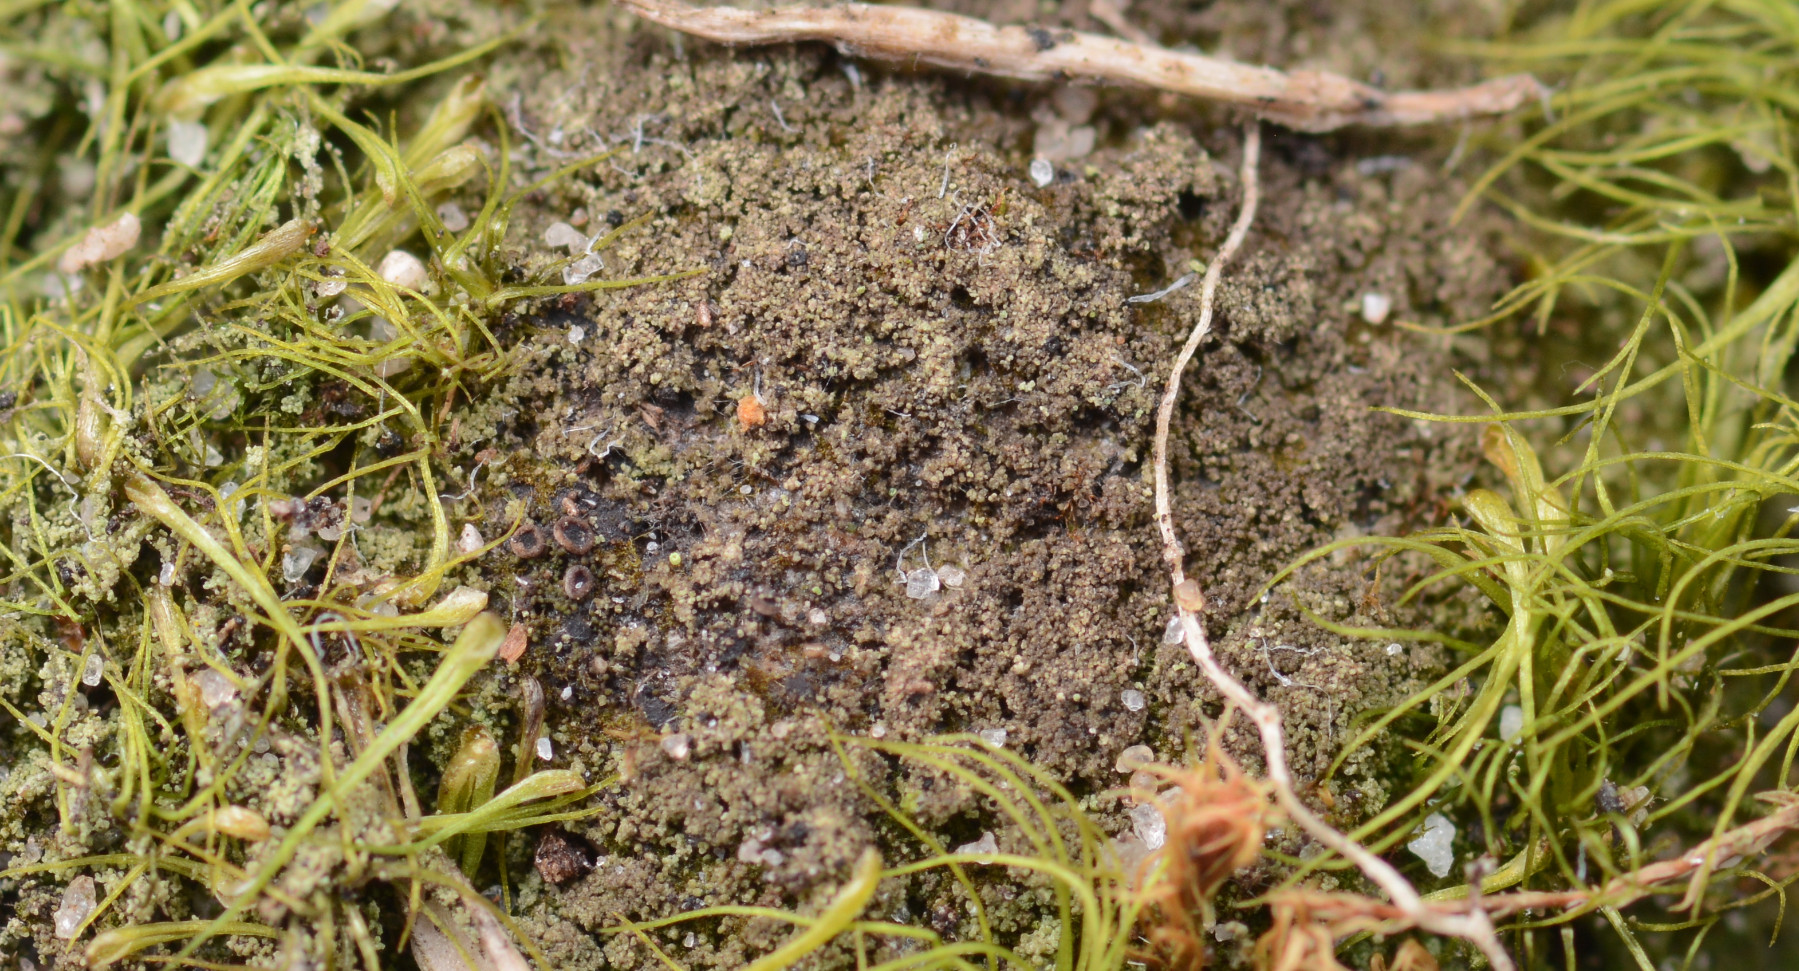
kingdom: Fungi
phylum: Ascomycota
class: Lecanoromycetes
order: Baeomycetales
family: Trapeliaceae
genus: Placynthiella
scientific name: Placynthiella icmalea
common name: stift-skivelav
